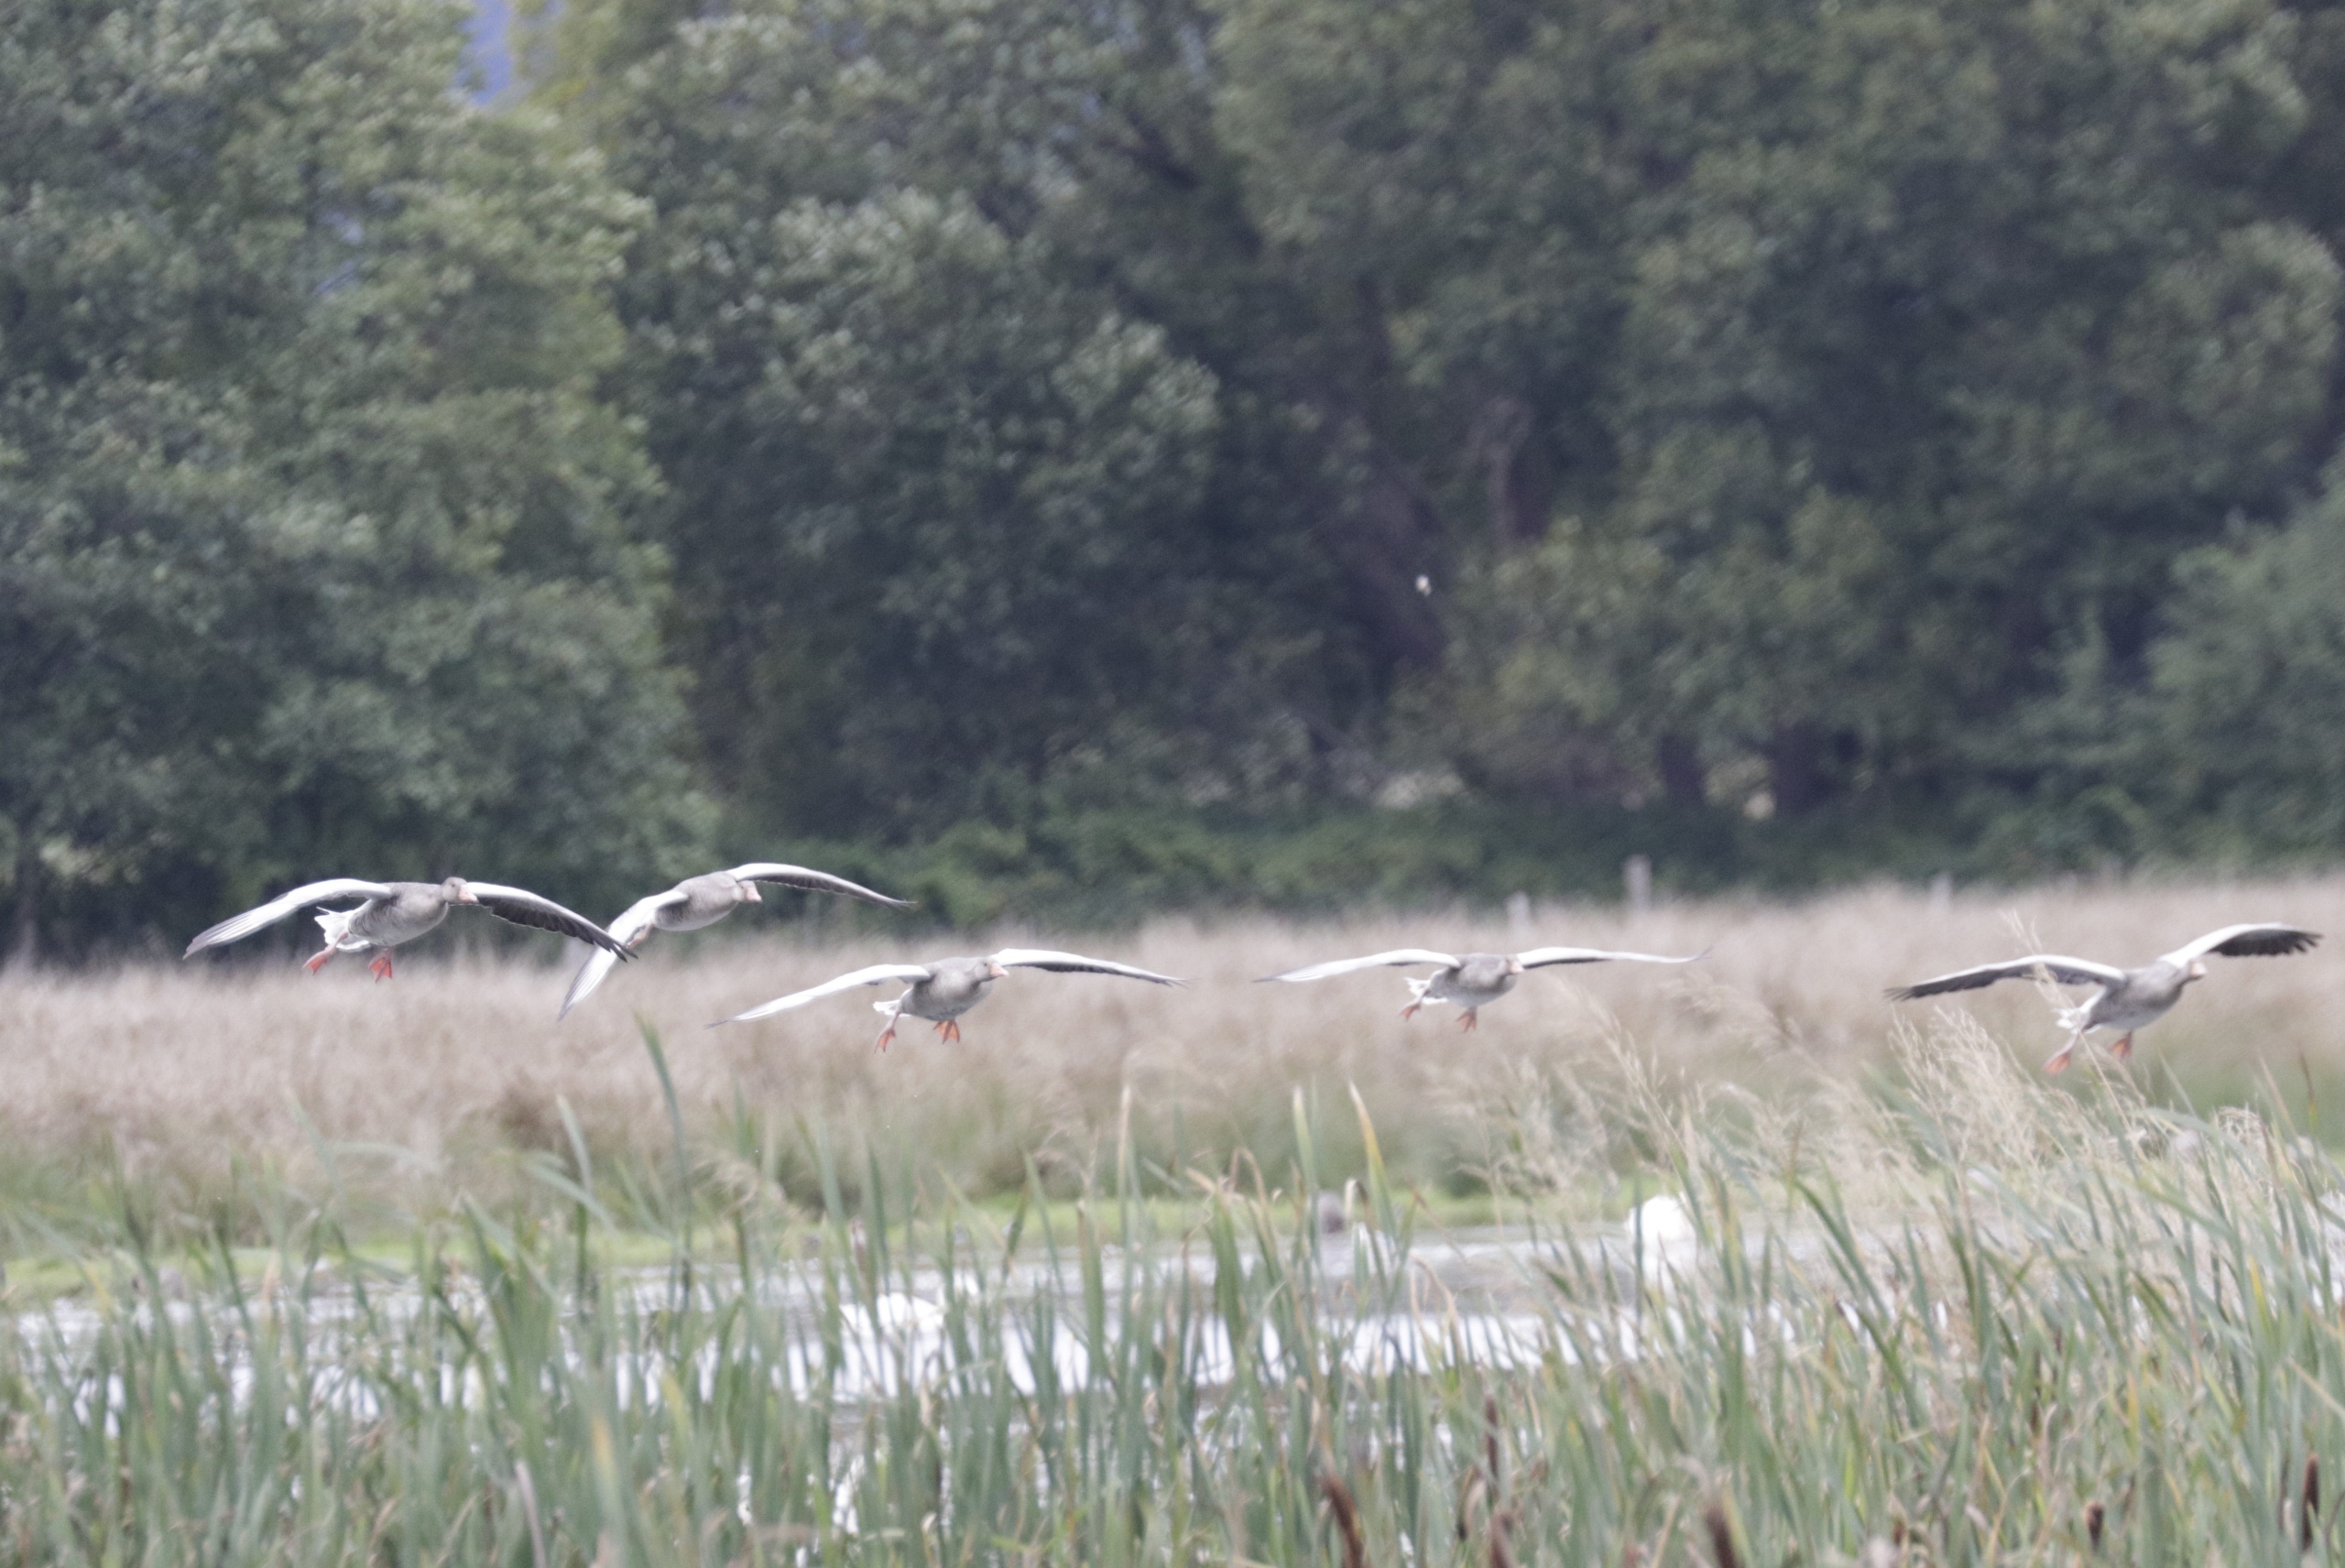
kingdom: Animalia
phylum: Chordata
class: Aves
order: Anseriformes
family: Anatidae
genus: Anser
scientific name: Anser anser
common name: Grågås
